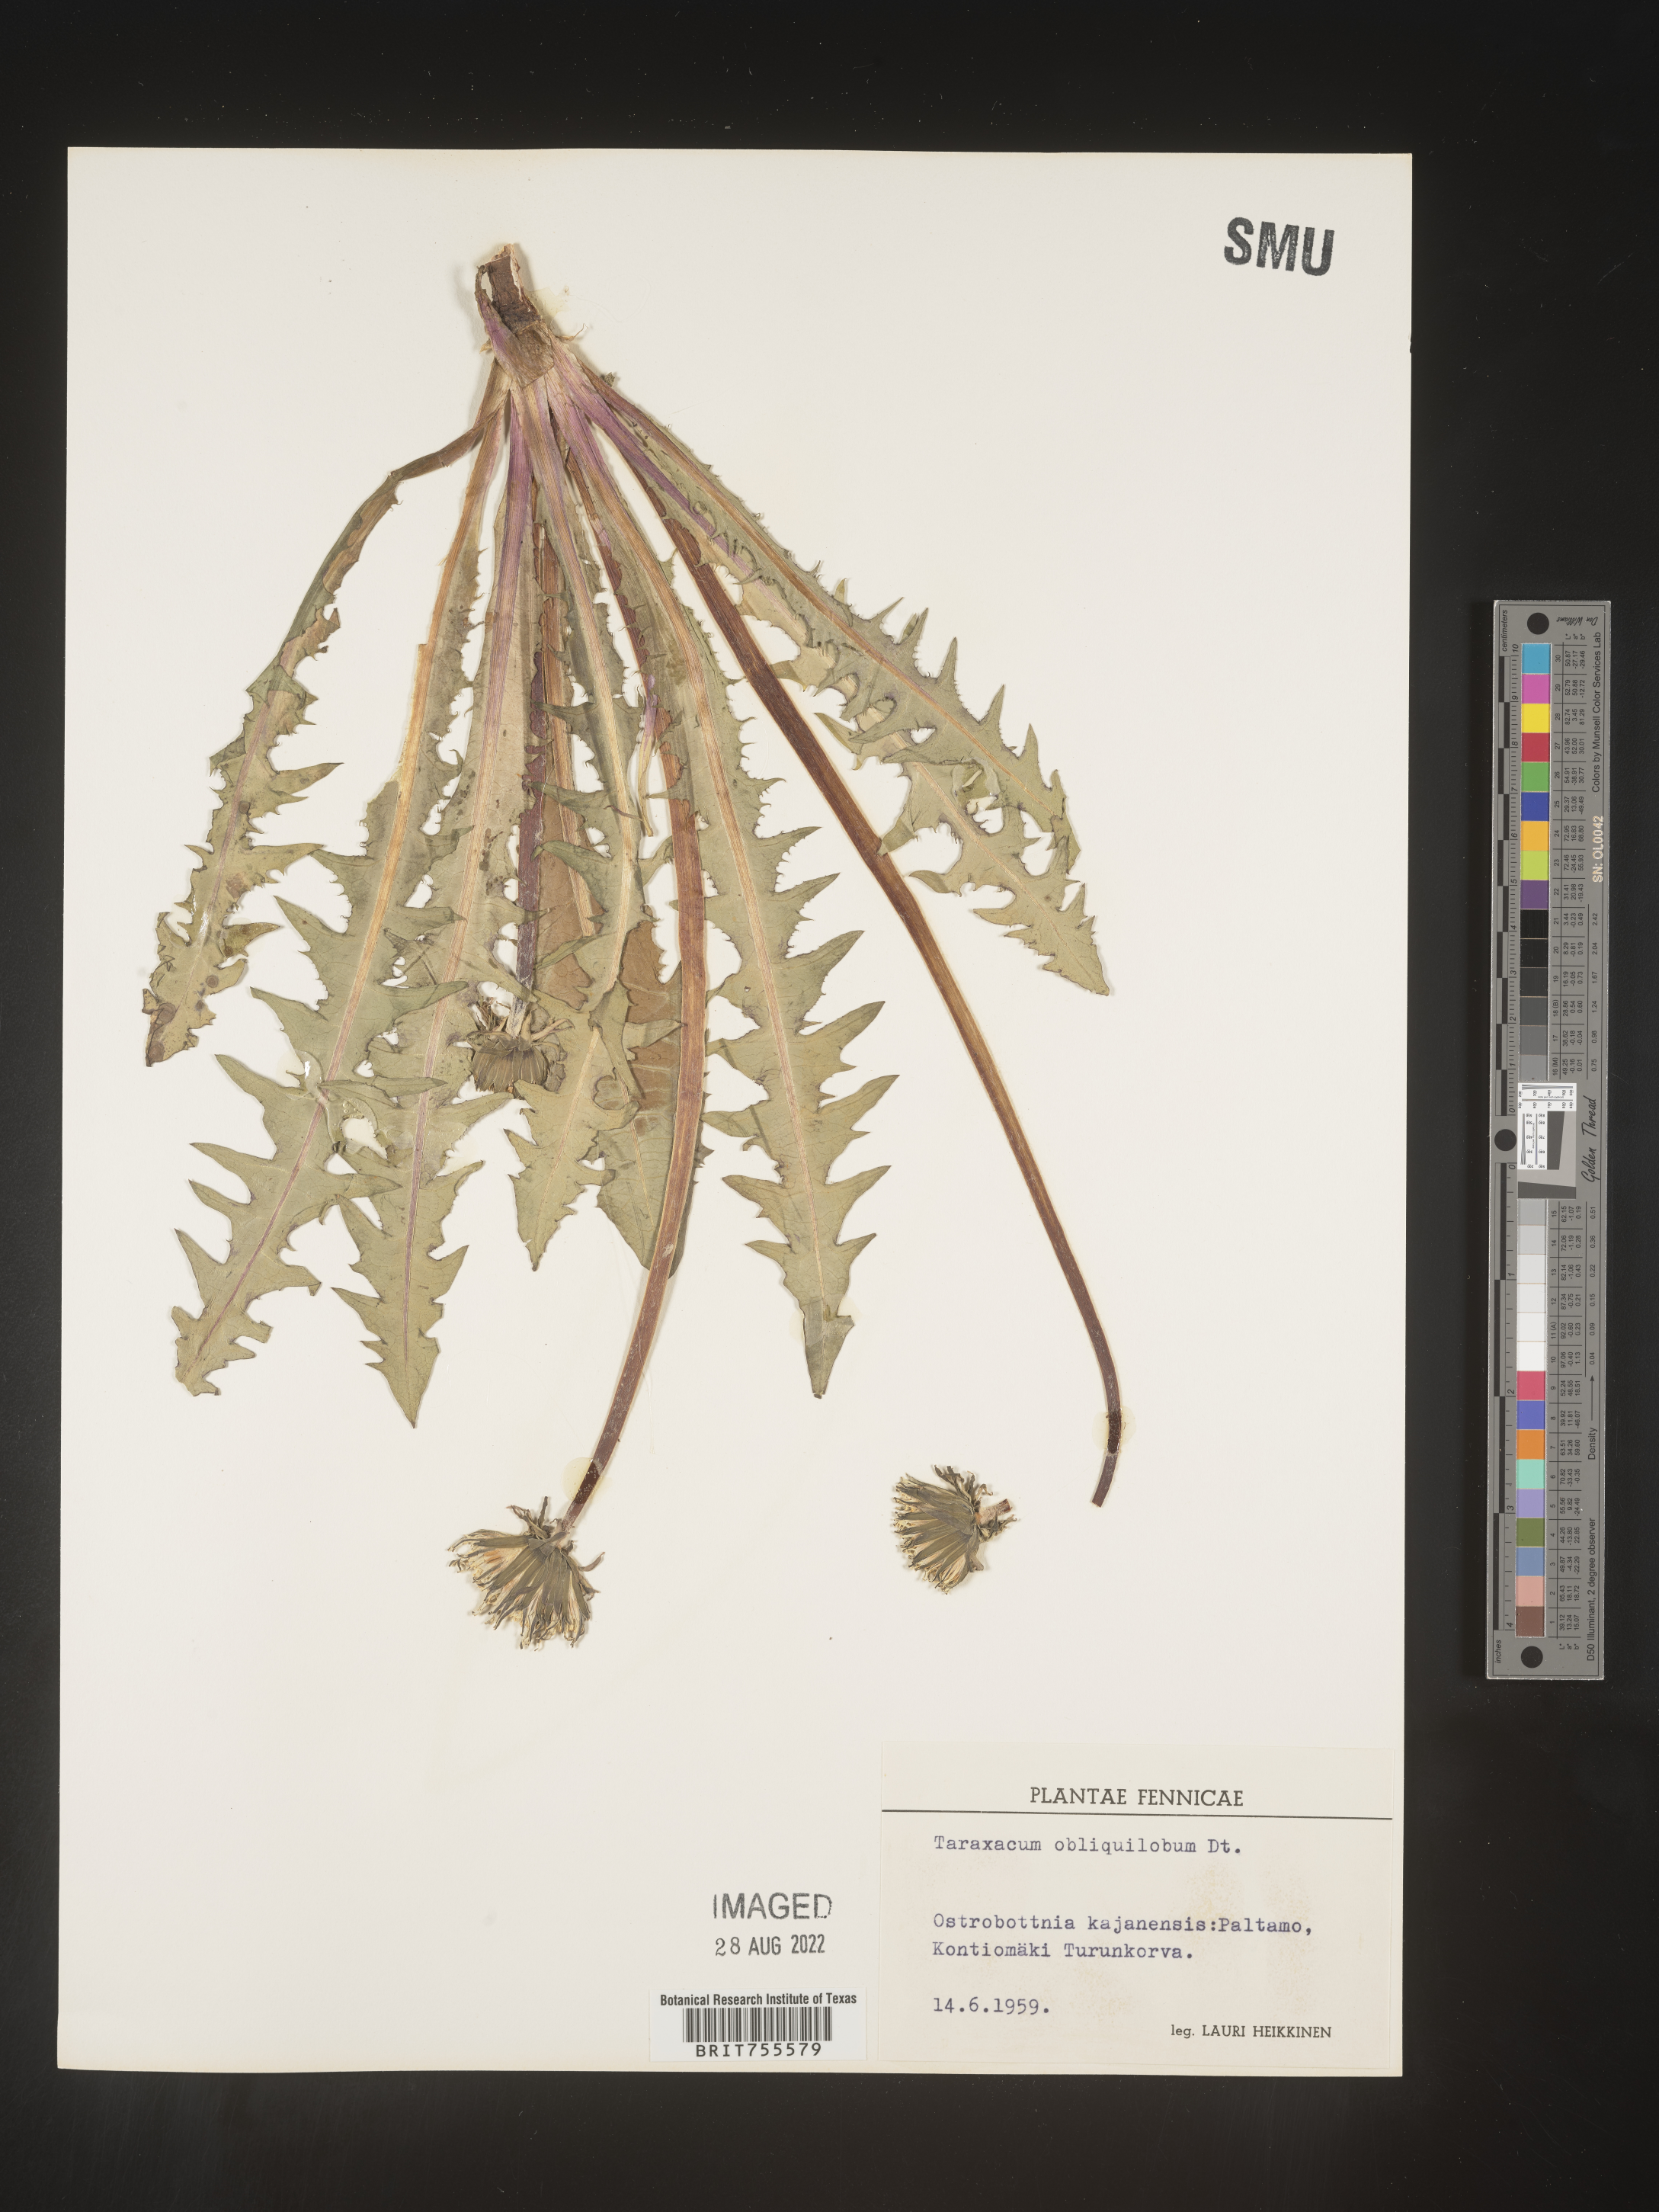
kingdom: Plantae
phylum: Tracheophyta
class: Magnoliopsida
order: Asterales
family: Asteraceae
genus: Taraxacum
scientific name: Taraxacum
